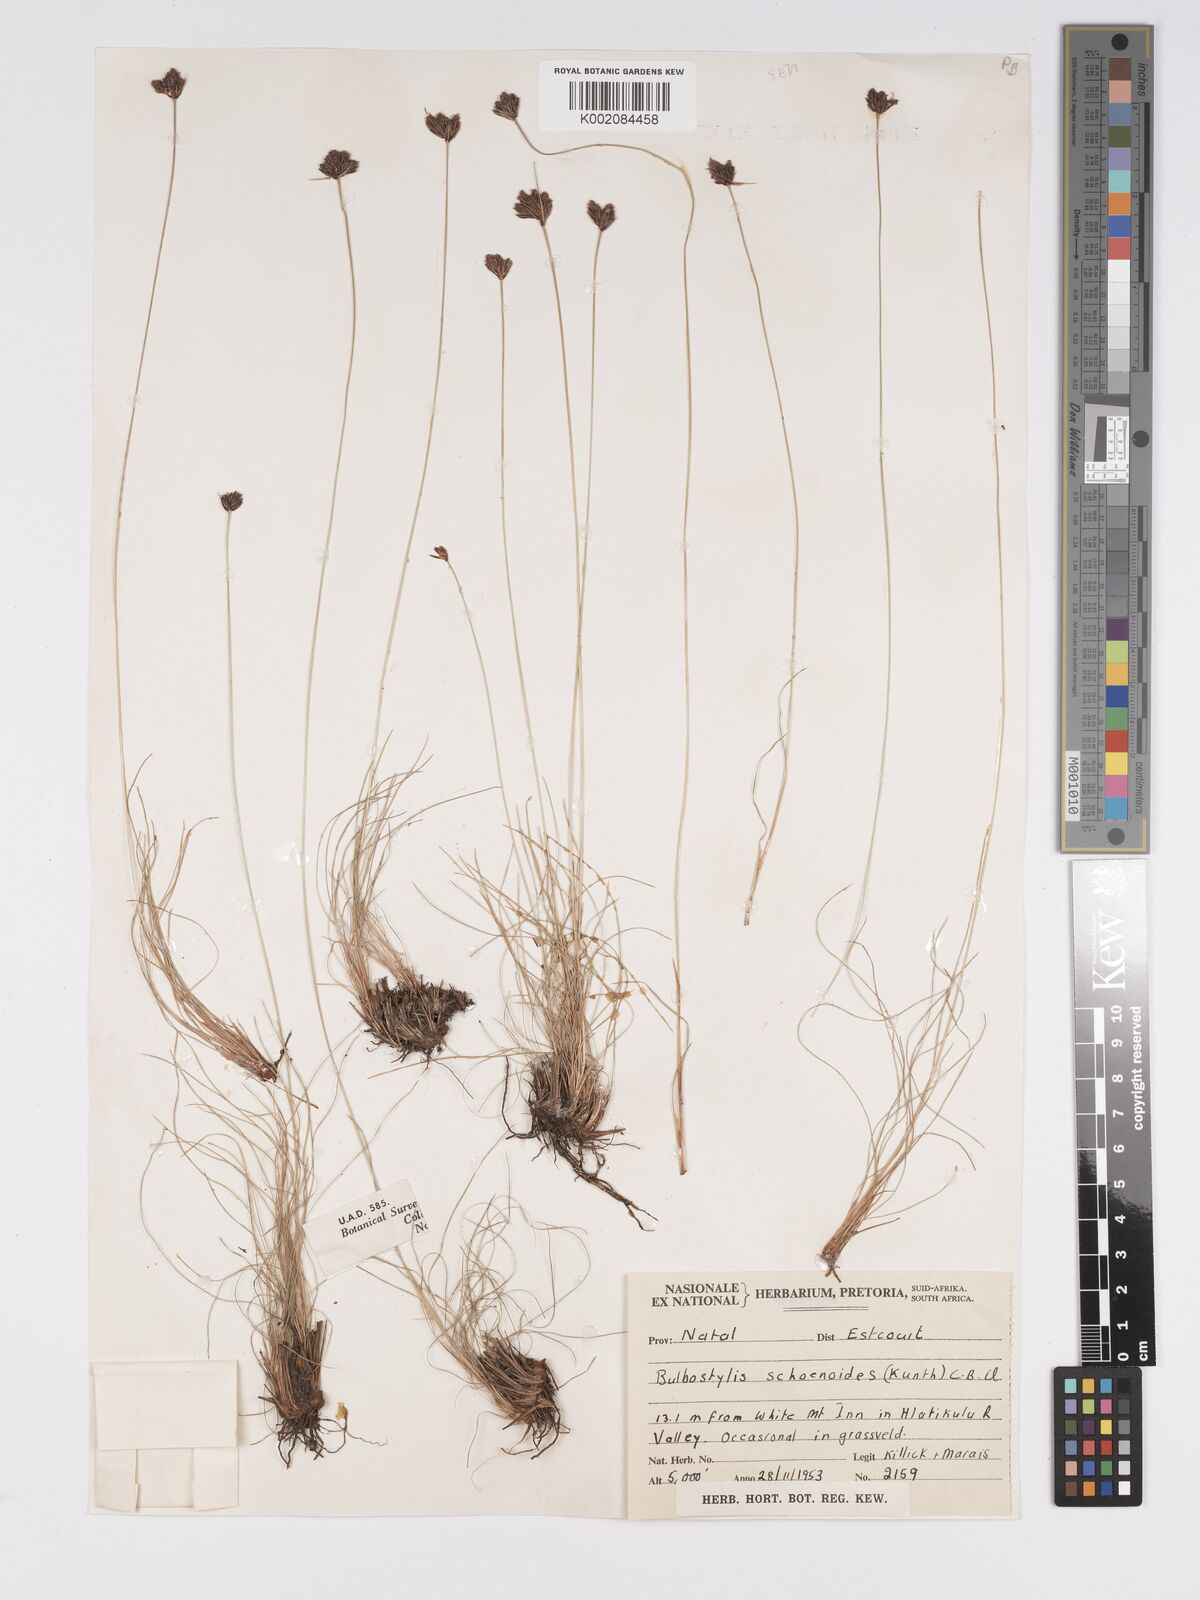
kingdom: Plantae
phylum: Tracheophyta
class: Liliopsida
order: Poales
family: Cyperaceae
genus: Bulbostylis
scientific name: Bulbostylis schoenoides
